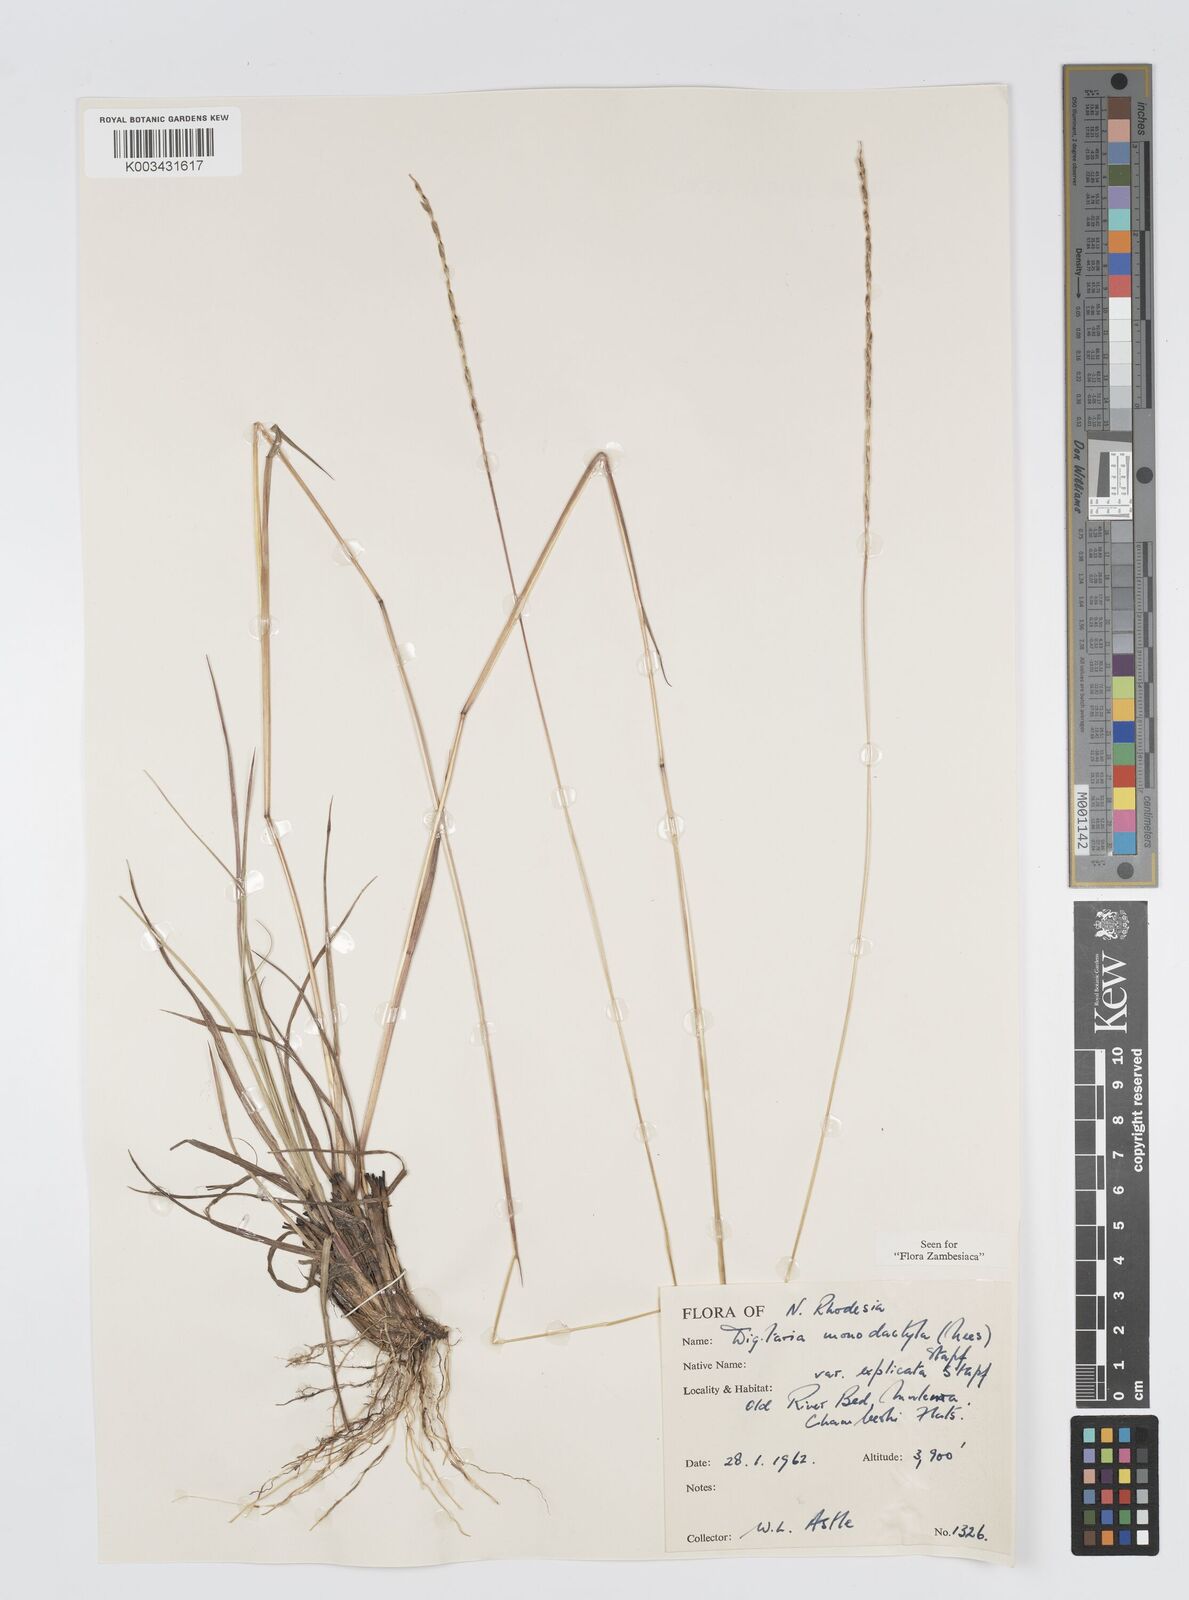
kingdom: Plantae
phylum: Tracheophyta
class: Liliopsida
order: Poales
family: Poaceae
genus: Digitaria
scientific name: Digitaria monodactyla
